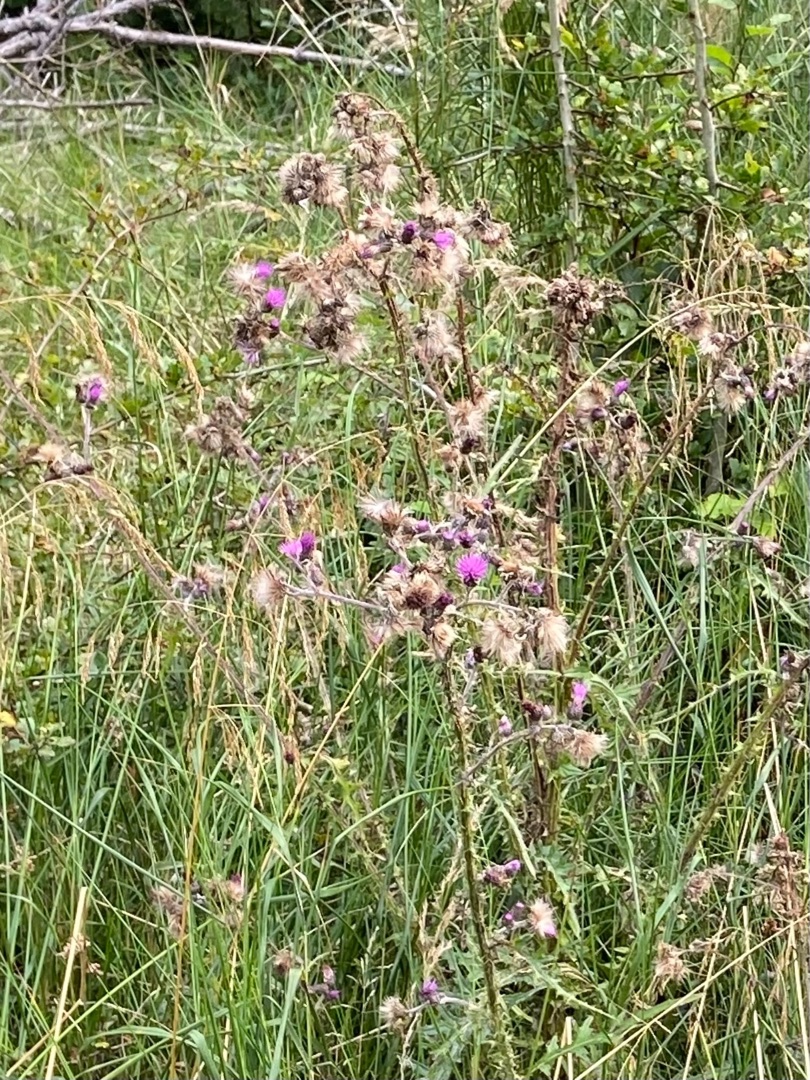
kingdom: Plantae
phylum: Tracheophyta
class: Magnoliopsida
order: Asterales
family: Asteraceae
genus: Cirsium
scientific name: Cirsium palustre
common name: Kær-tidsel
